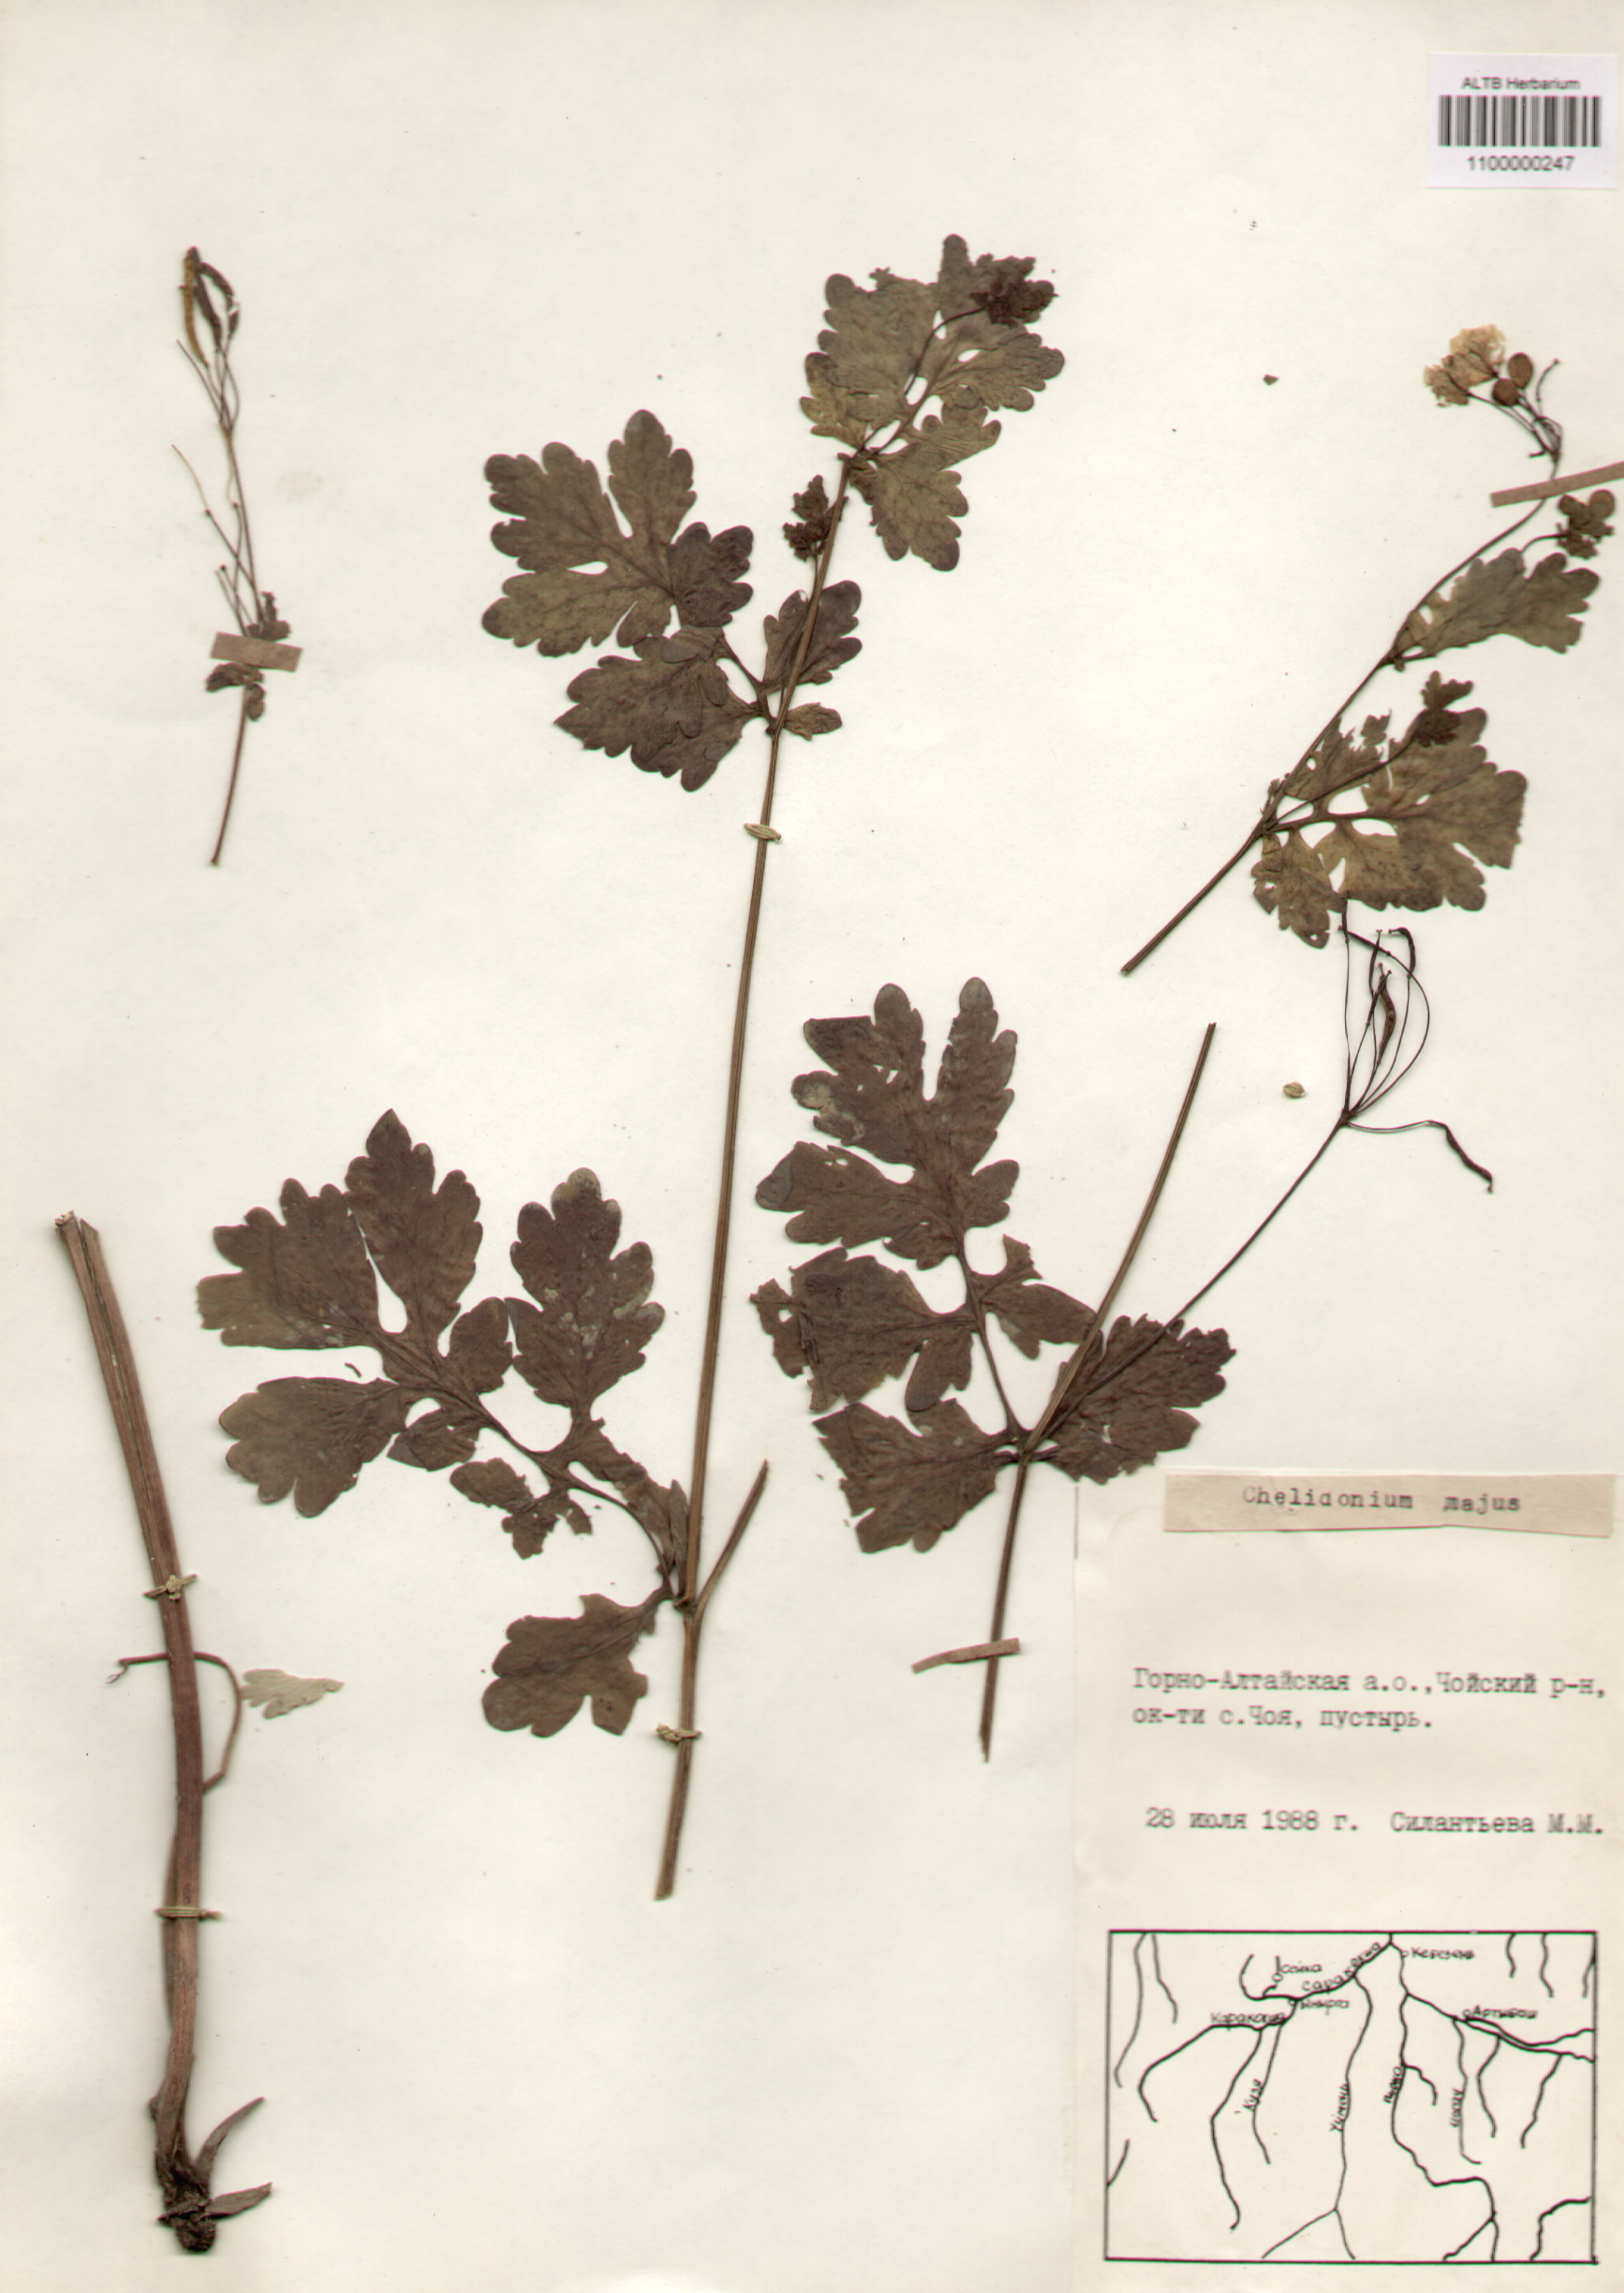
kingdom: Plantae
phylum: Tracheophyta
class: Magnoliopsida
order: Ranunculales
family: Papaveraceae
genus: Chelidonium
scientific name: Chelidonium majus
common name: Greater celandine
